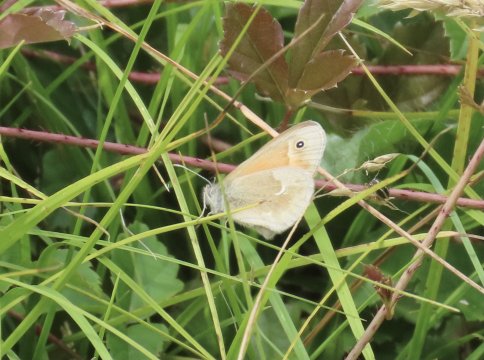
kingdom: Animalia
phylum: Arthropoda
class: Insecta
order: Lepidoptera
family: Nymphalidae
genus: Coenonympha
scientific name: Coenonympha tullia
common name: Large Heath
